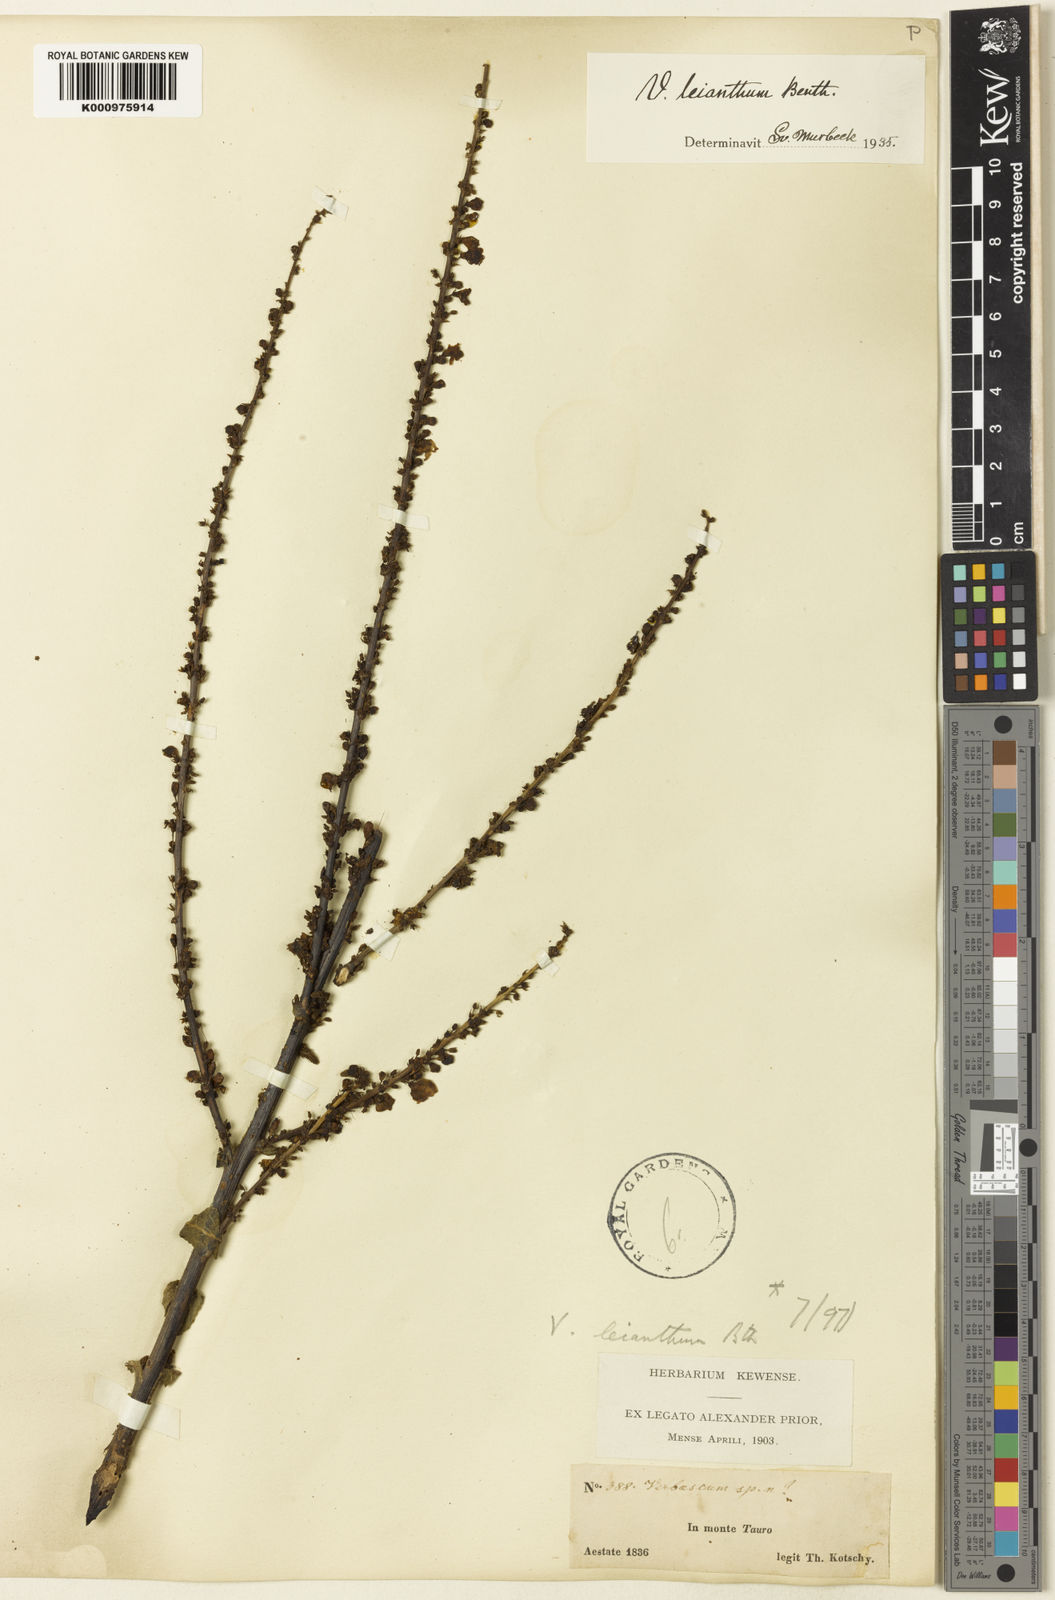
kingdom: Plantae
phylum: Tracheophyta
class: Magnoliopsida
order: Lamiales
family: Scrophulariaceae
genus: Verbascum
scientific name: Verbascum leianthum
